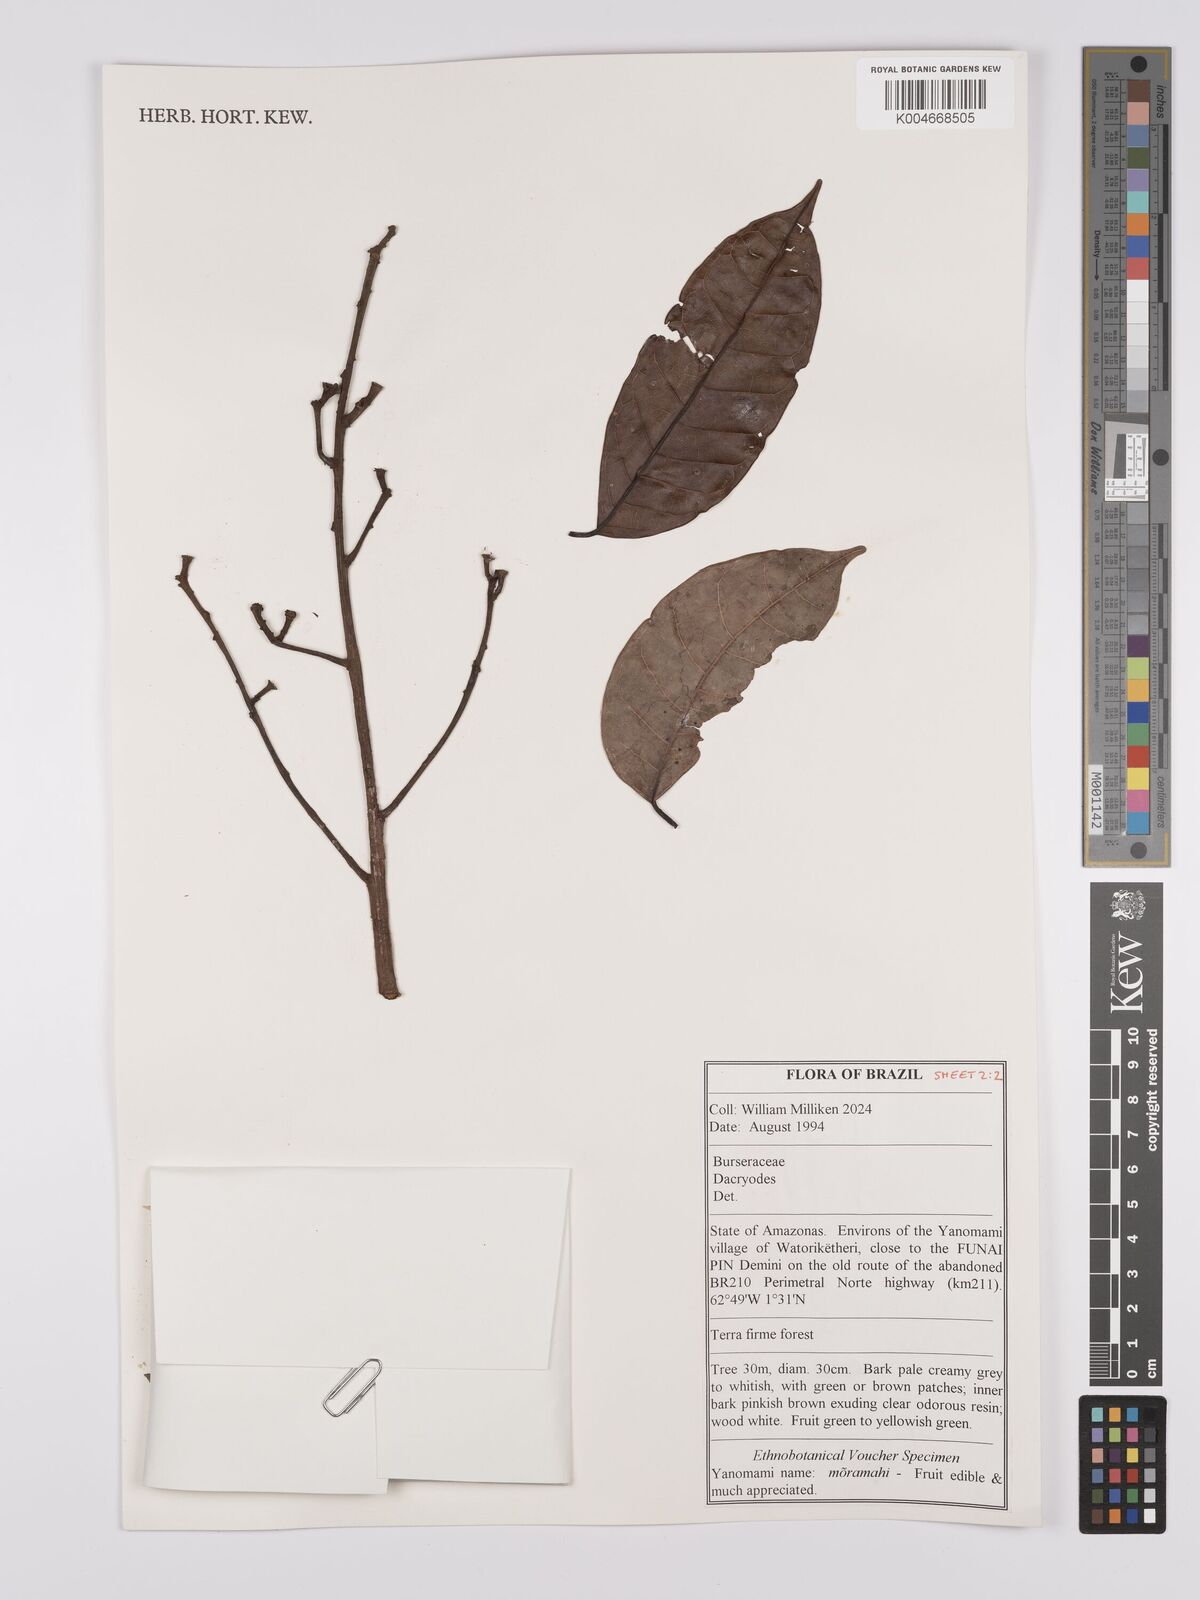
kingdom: Plantae
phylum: Tracheophyta
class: Magnoliopsida
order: Sapindales
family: Burseraceae
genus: Dacryodes
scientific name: Dacryodes
